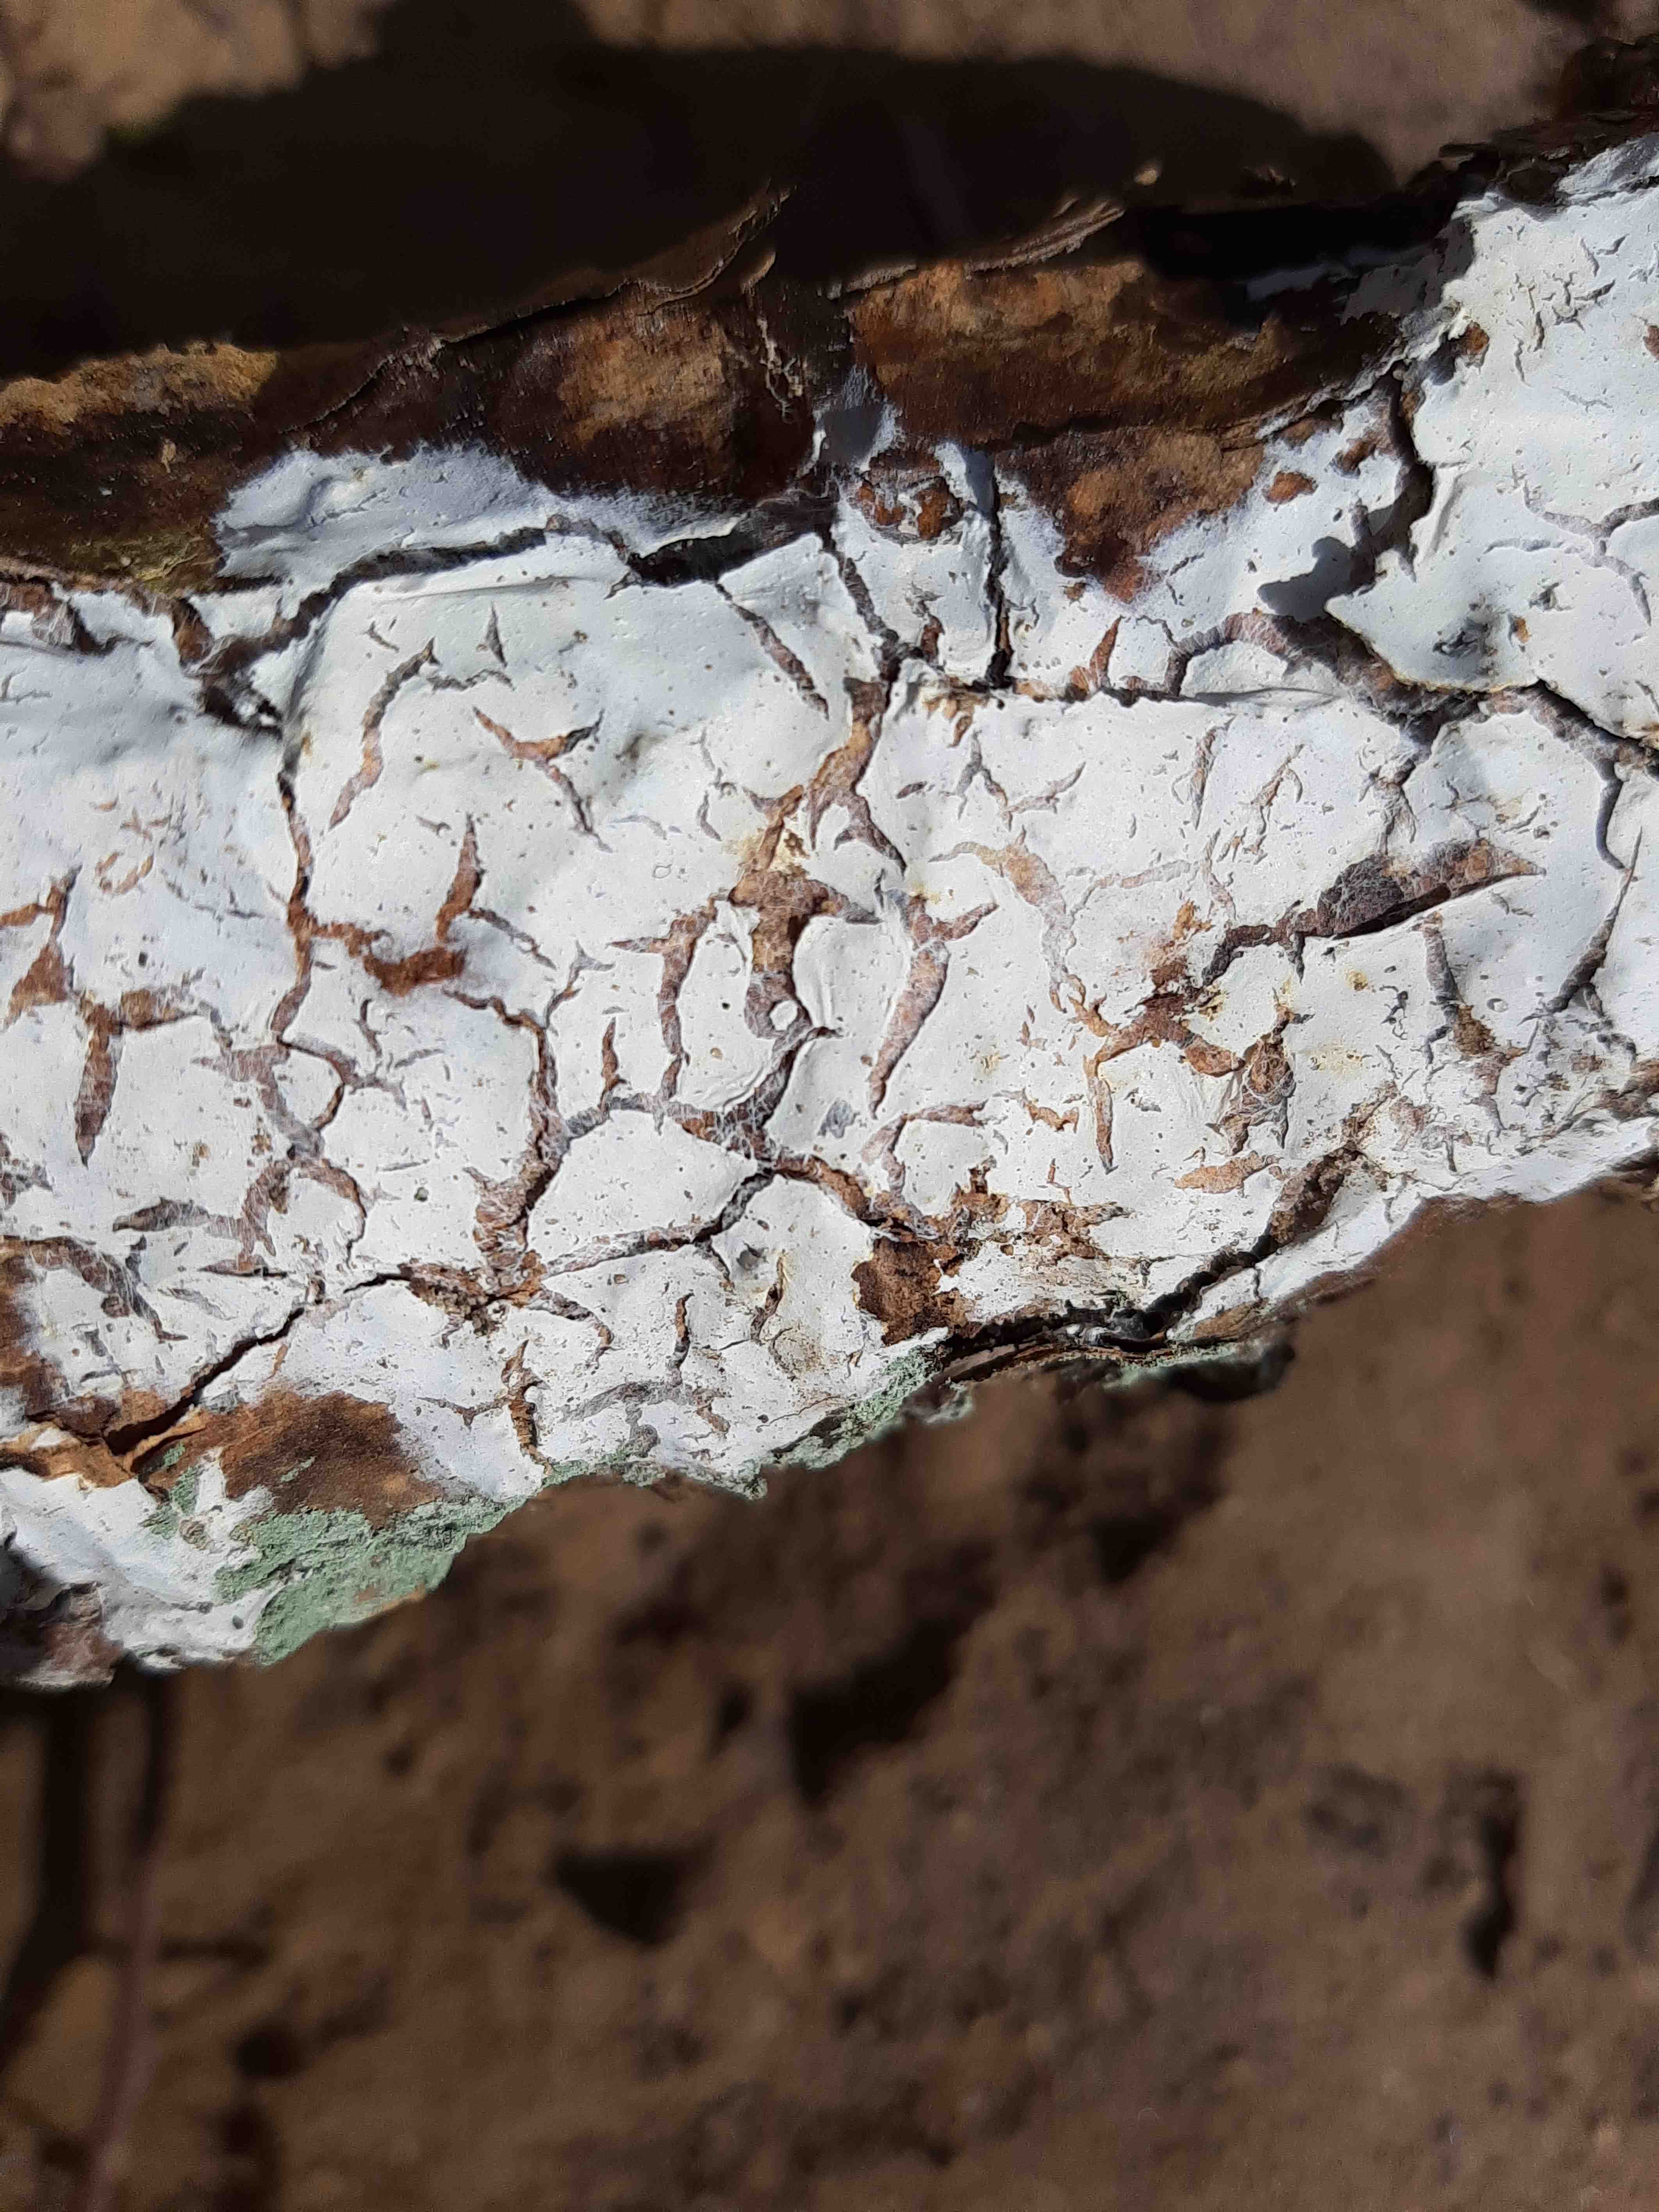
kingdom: Fungi
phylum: Basidiomycota
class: Agaricomycetes
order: Corticiales
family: Corticiaceae
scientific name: Corticiaceae
